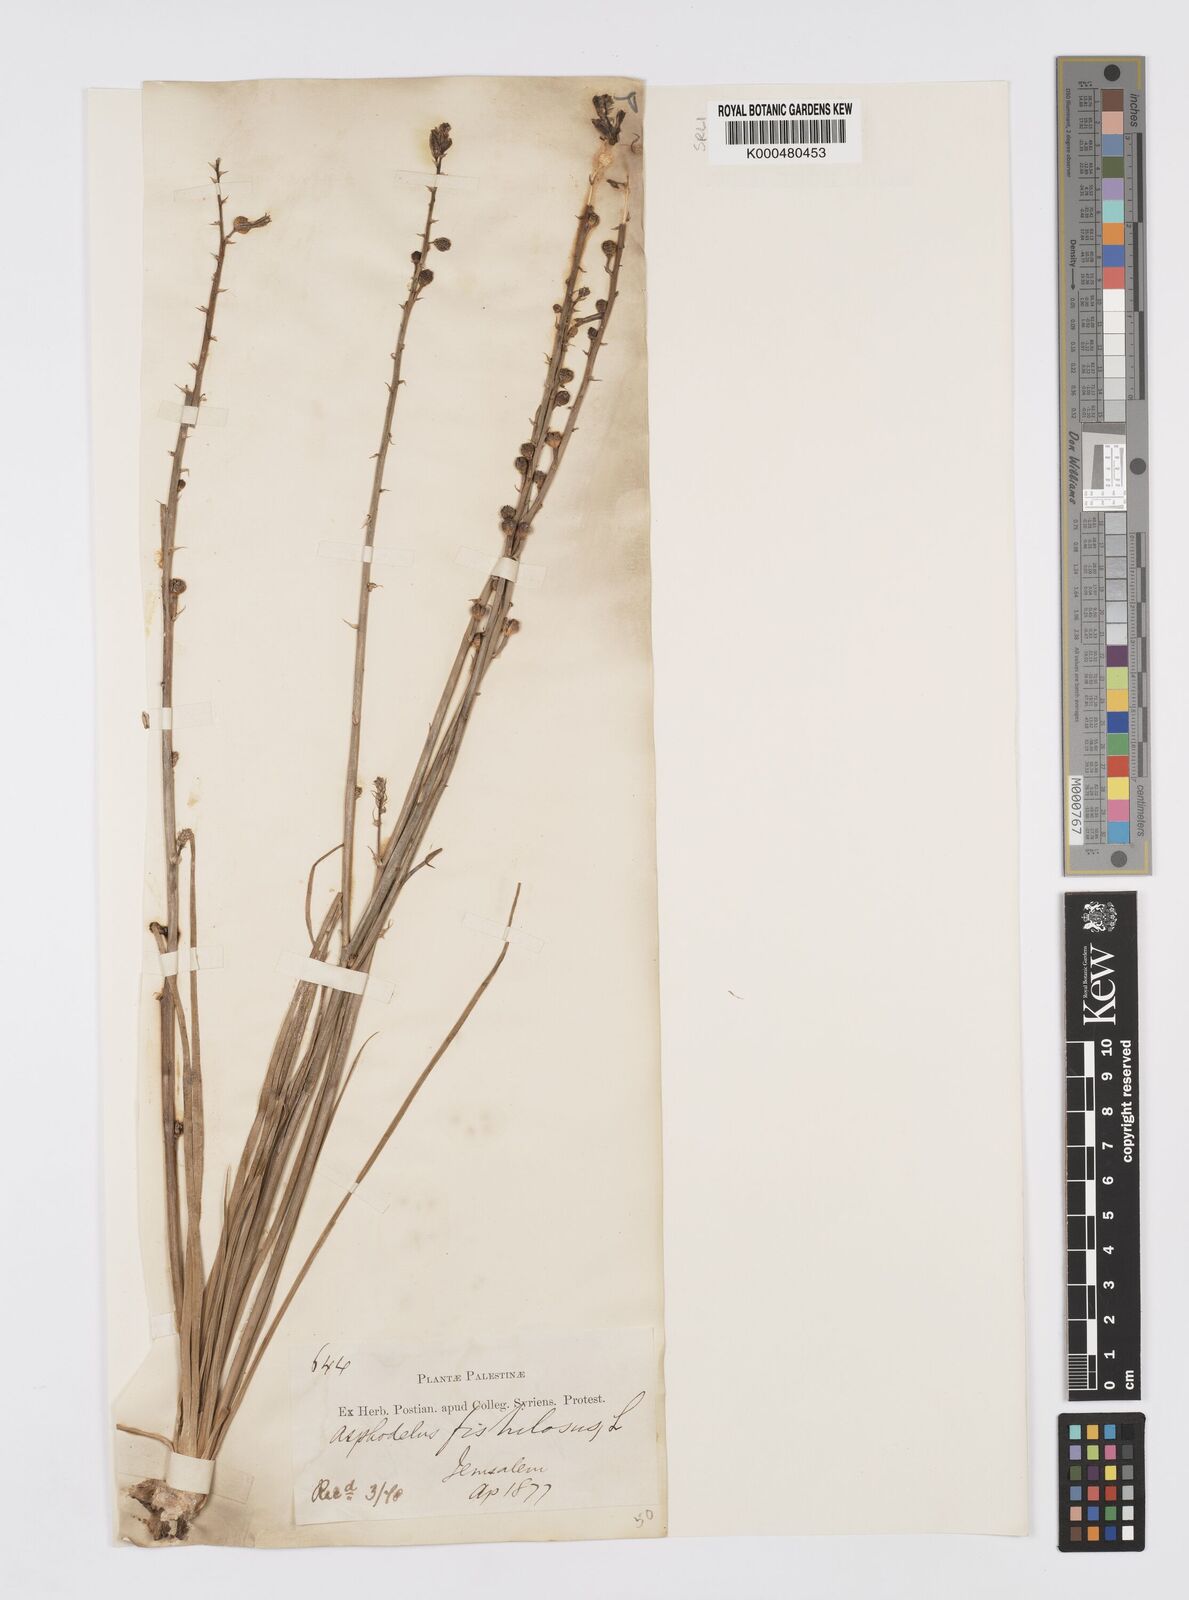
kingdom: Plantae
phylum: Tracheophyta
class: Liliopsida
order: Asparagales
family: Asphodelaceae
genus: Asphodelus
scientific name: Asphodelus fistulosus
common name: Onionweed
